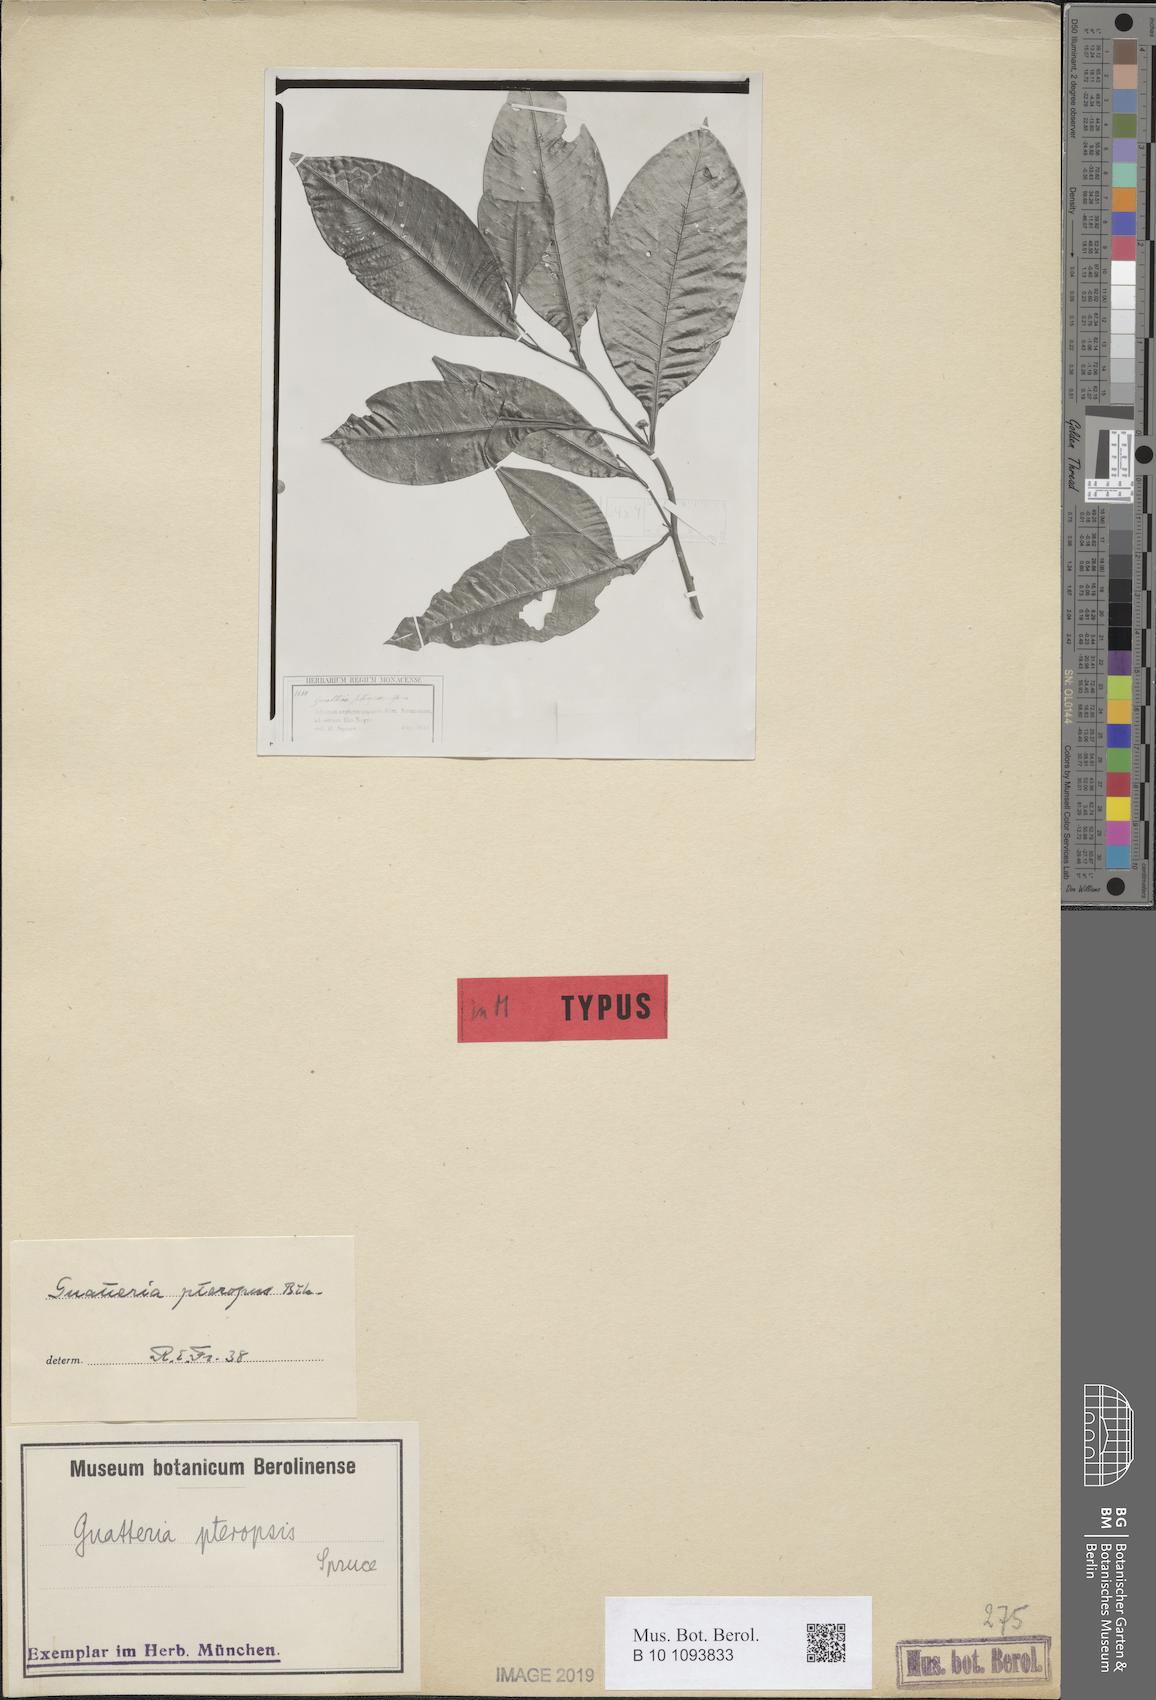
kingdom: Plantae
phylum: Tracheophyta
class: Magnoliopsida
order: Magnoliales
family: Annonaceae
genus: Guatteria
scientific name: Guatteria punctata
